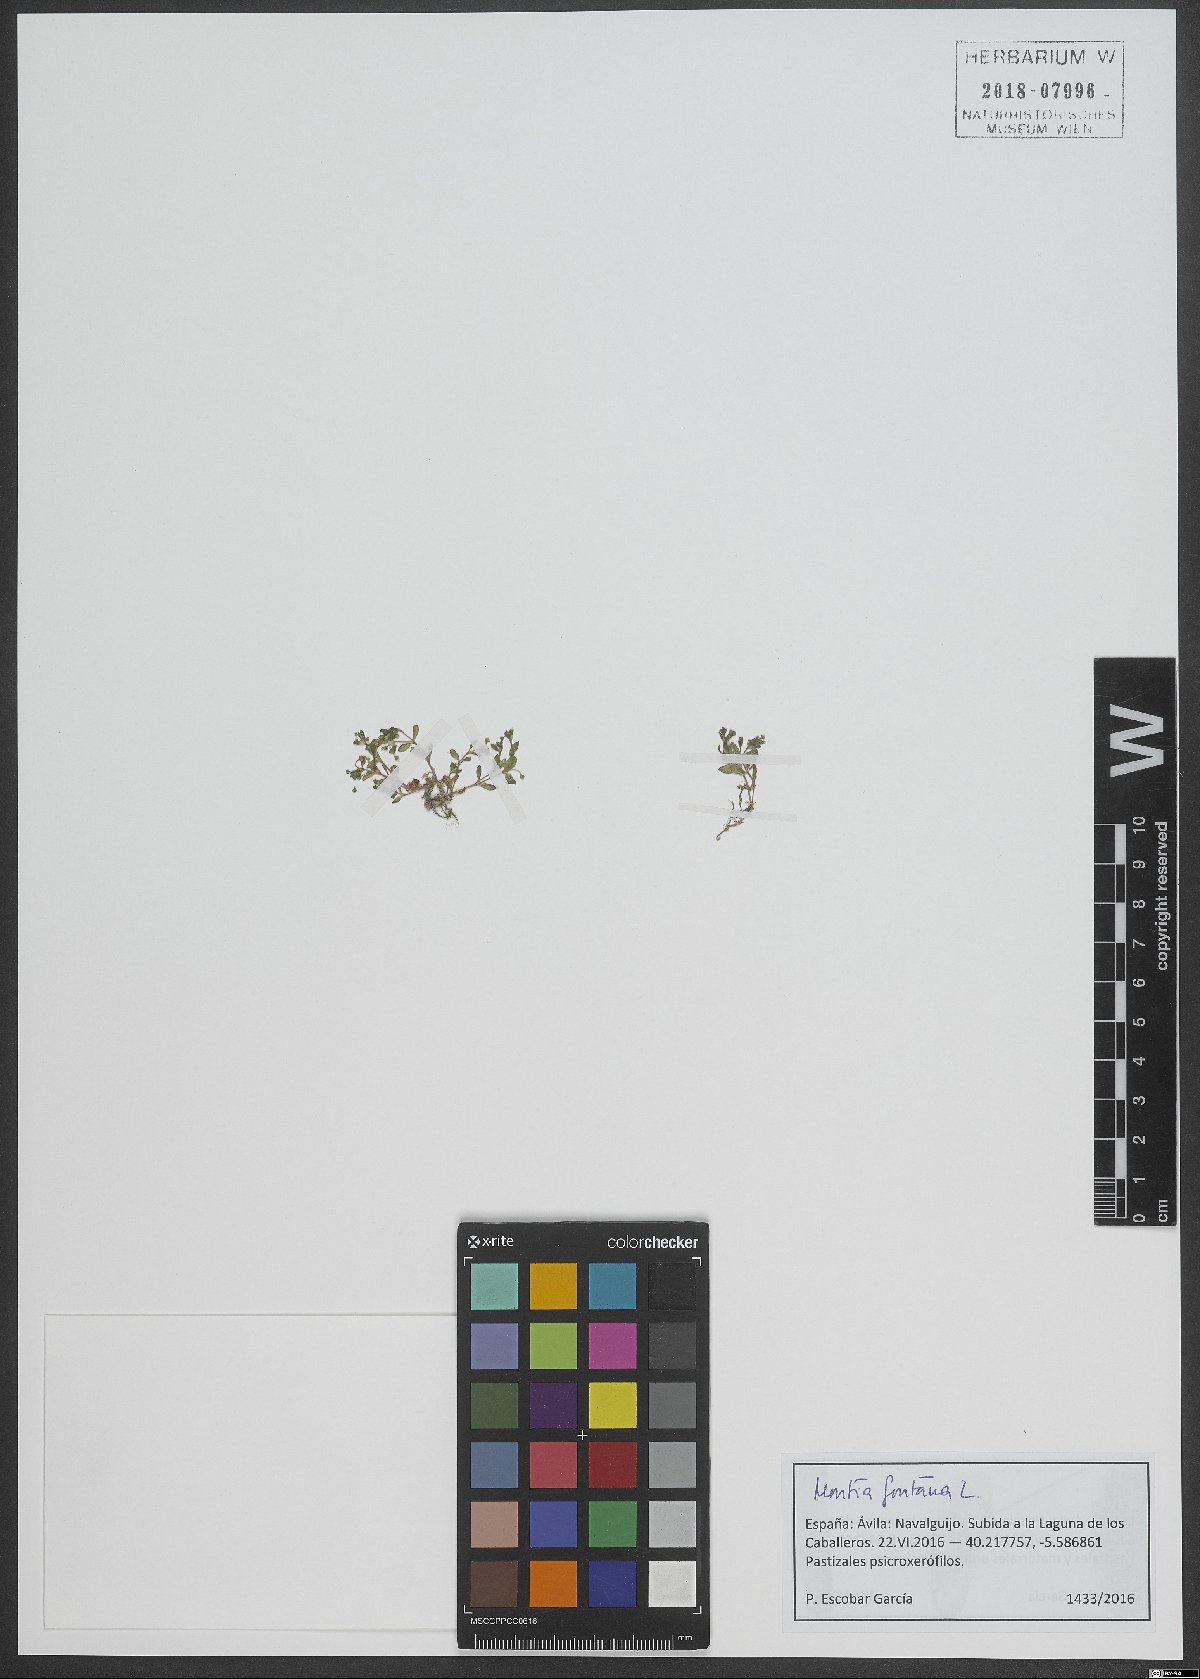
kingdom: Plantae
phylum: Tracheophyta
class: Magnoliopsida
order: Caryophyllales
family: Montiaceae
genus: Montia
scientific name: Montia fontana
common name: Blinks
